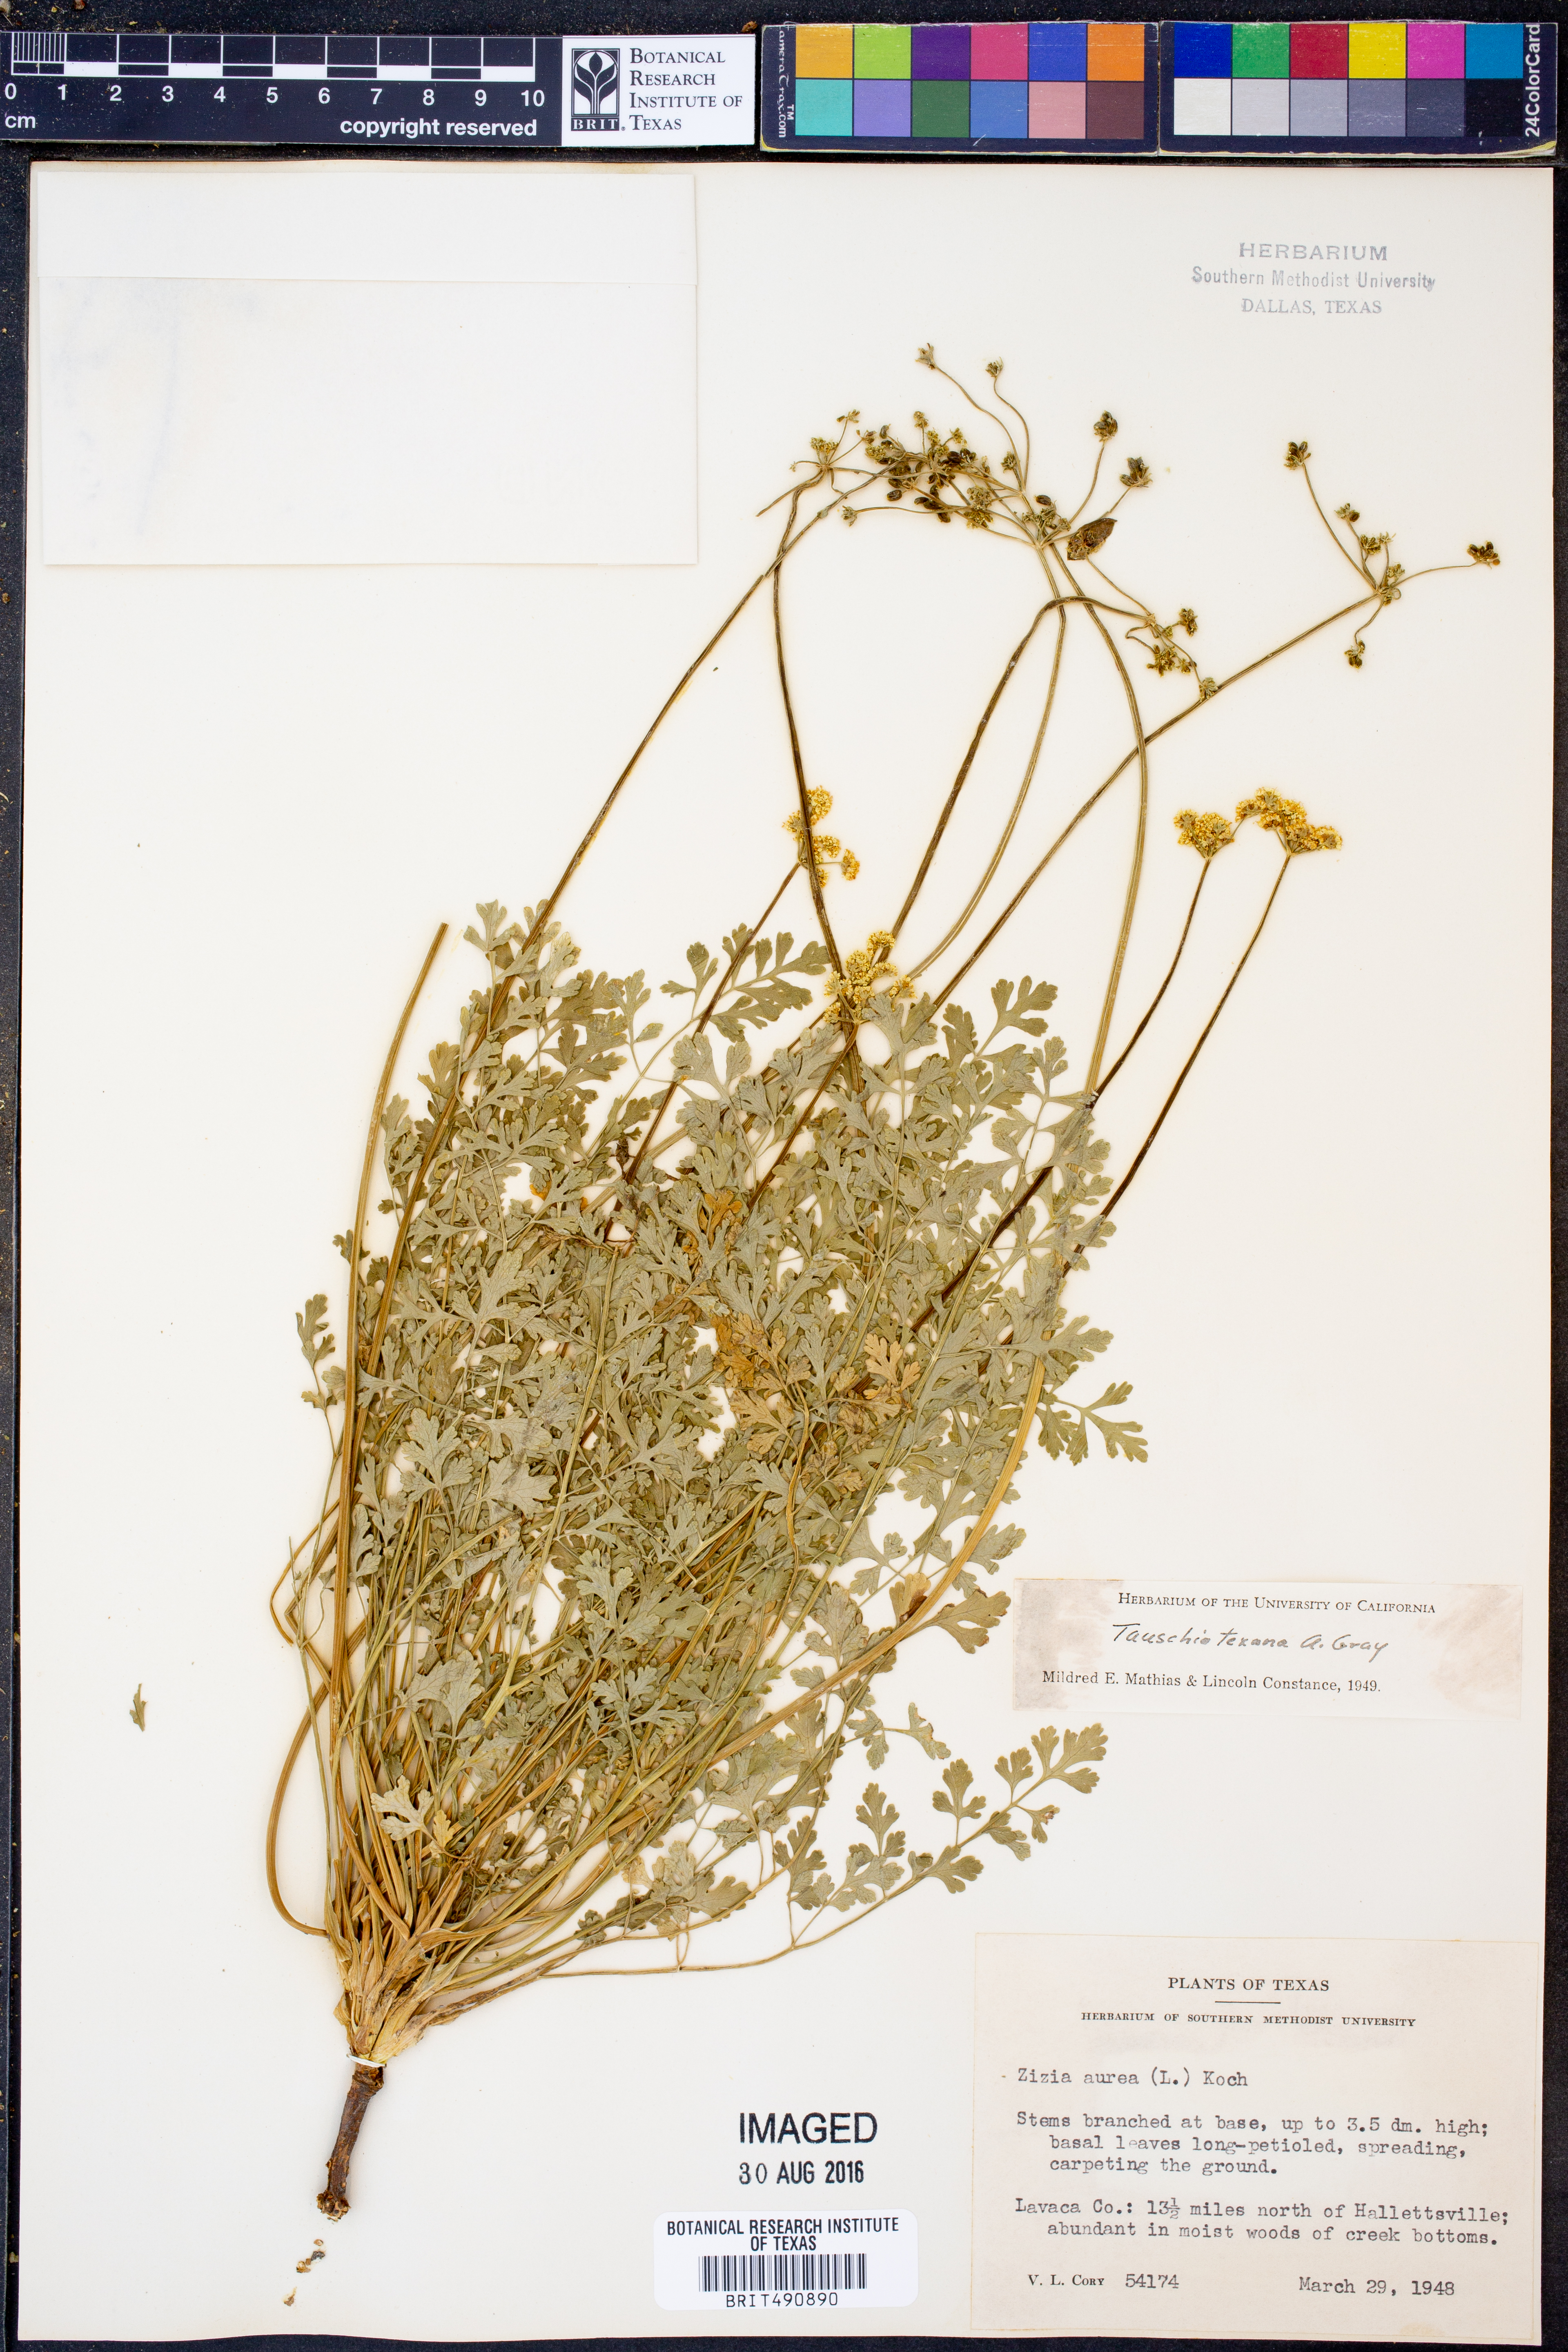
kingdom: Plantae
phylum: Tracheophyta
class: Magnoliopsida
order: Apiales
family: Apiaceae
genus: Tauschia
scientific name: Tauschia texana
